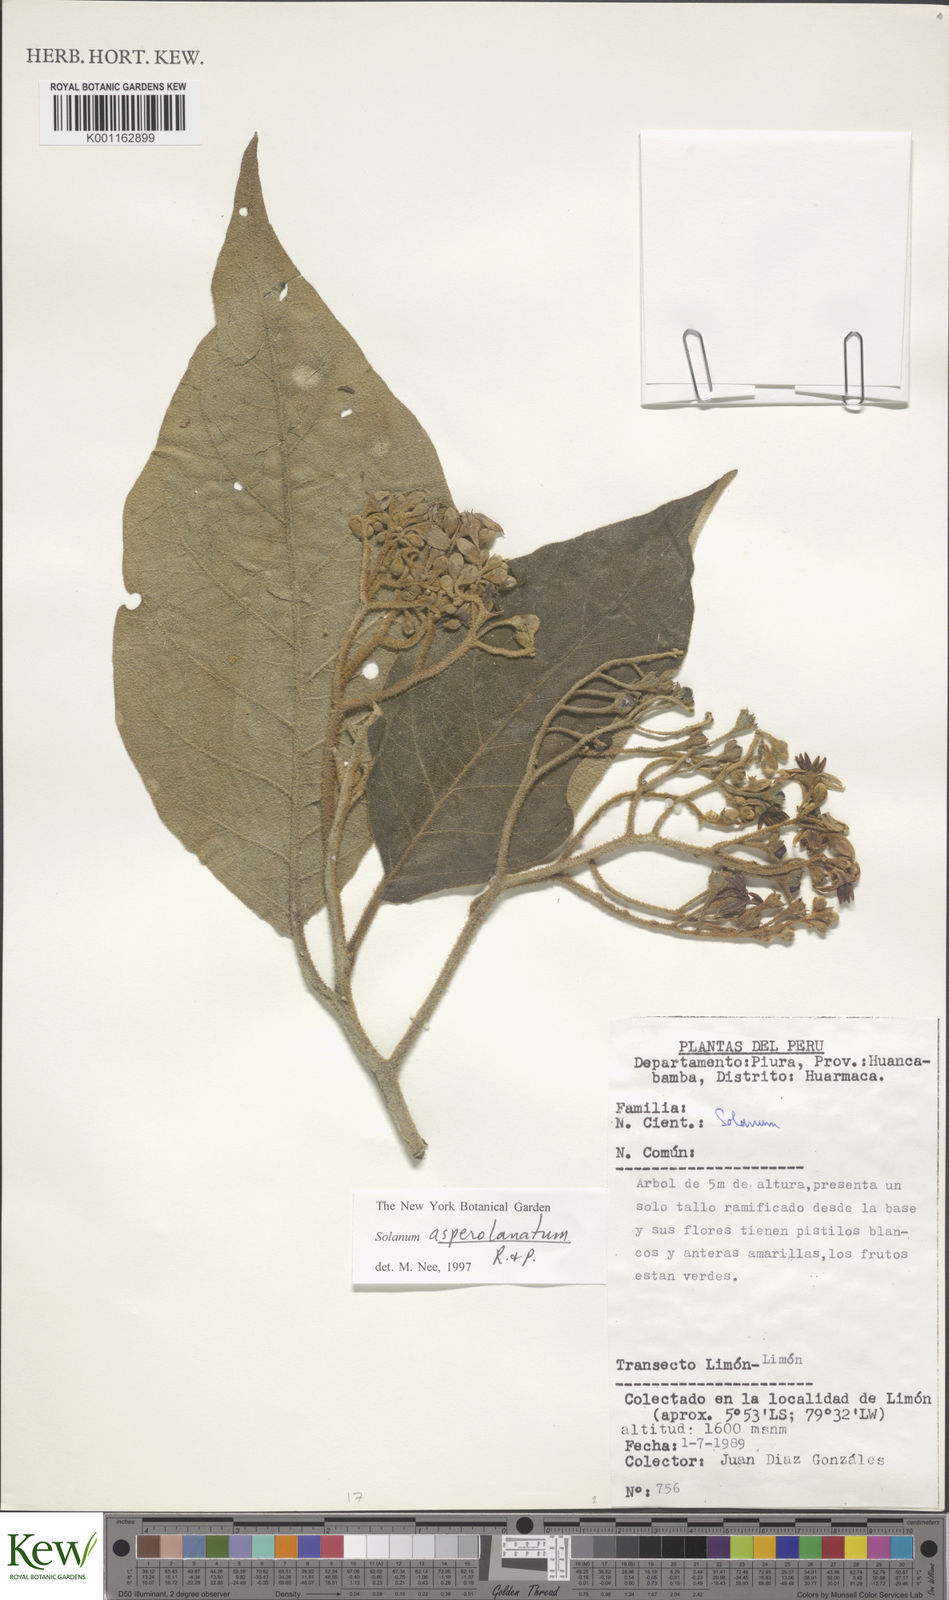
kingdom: Plantae
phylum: Tracheophyta
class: Magnoliopsida
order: Solanales
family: Solanaceae
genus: Solanum
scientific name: Solanum asperolanatum
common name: Devil's-fig
